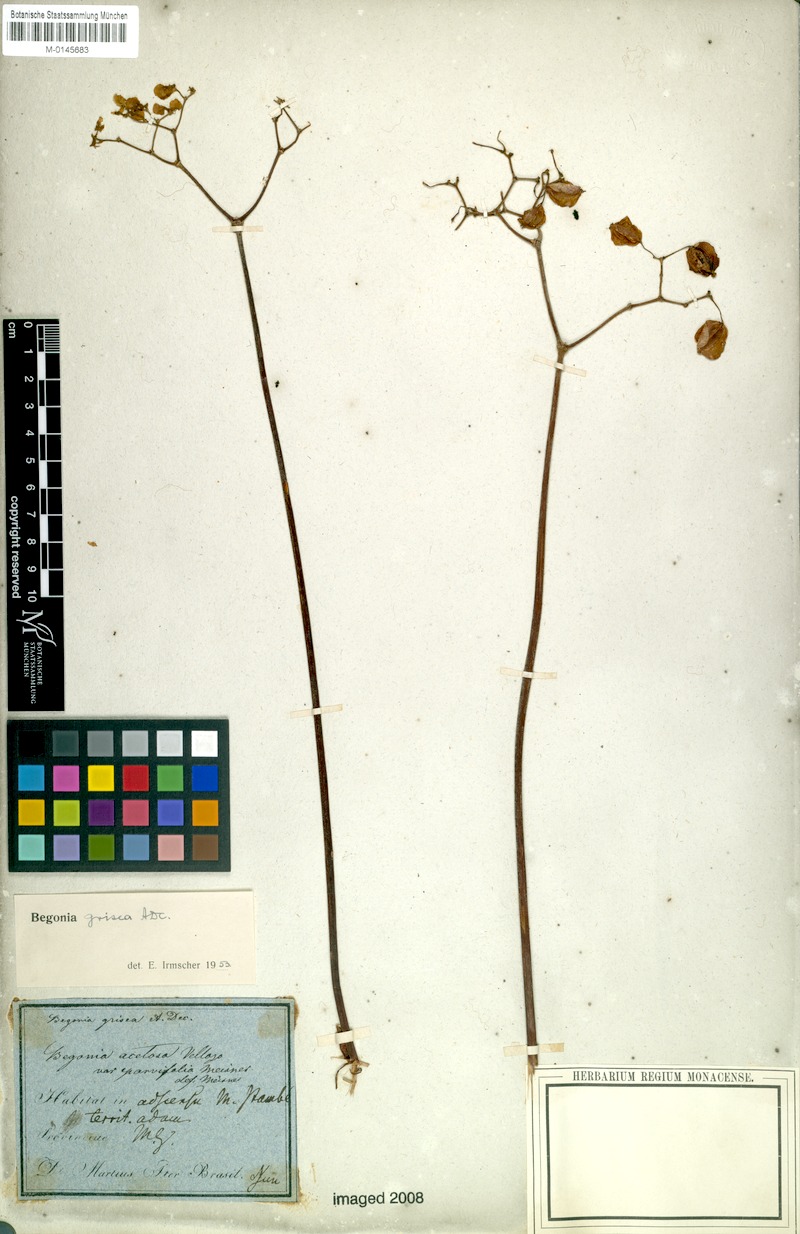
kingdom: Plantae
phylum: Tracheophyta
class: Magnoliopsida
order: Cucurbitales
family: Begoniaceae
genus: Begonia
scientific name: Begonia grisea
